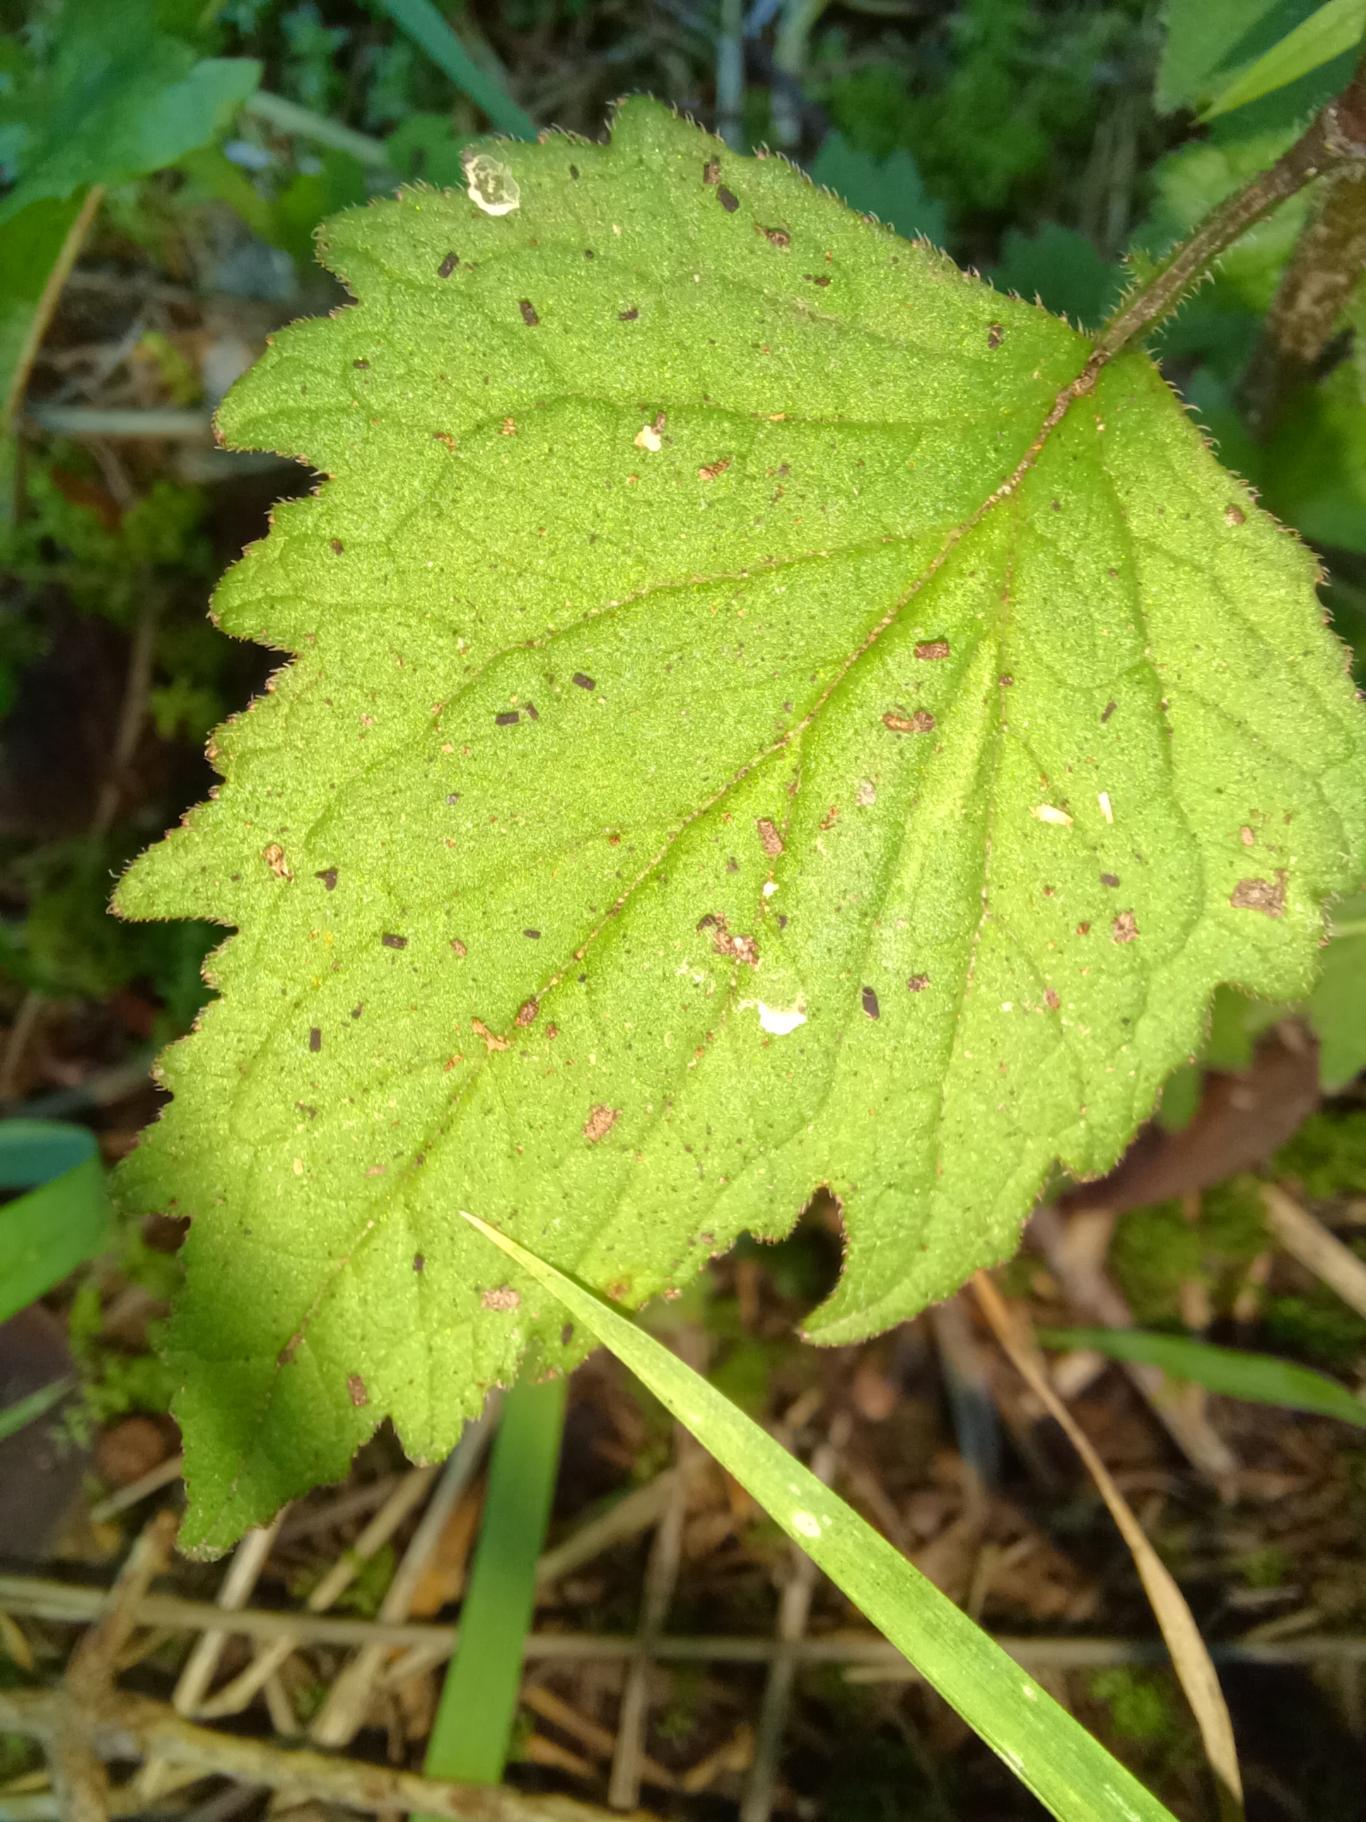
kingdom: Plantae
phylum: Tracheophyta
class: Magnoliopsida
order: Asterales
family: Campanulaceae
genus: Campanula
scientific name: Campanula trachelium
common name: Nælde-klokke
